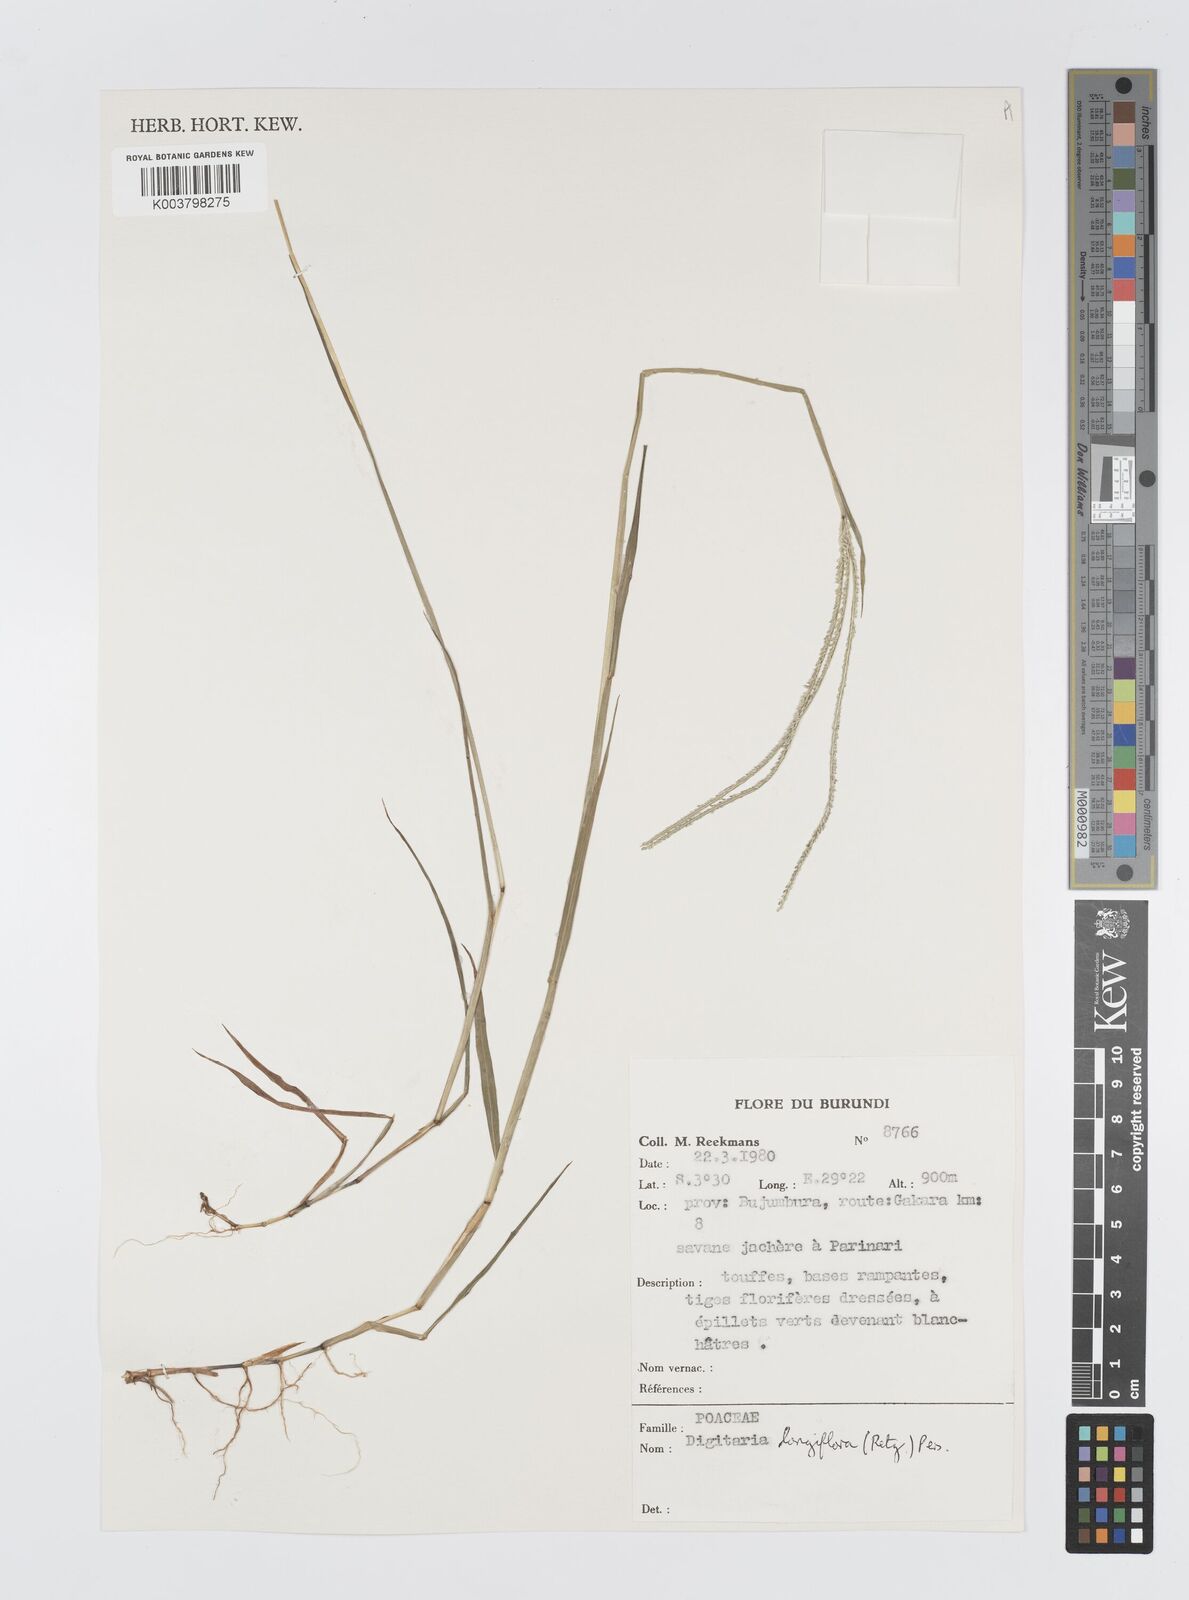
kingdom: Plantae
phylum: Tracheophyta
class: Liliopsida
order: Poales
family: Poaceae
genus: Digitaria
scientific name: Digitaria longiflora
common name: Wire crabgrass
